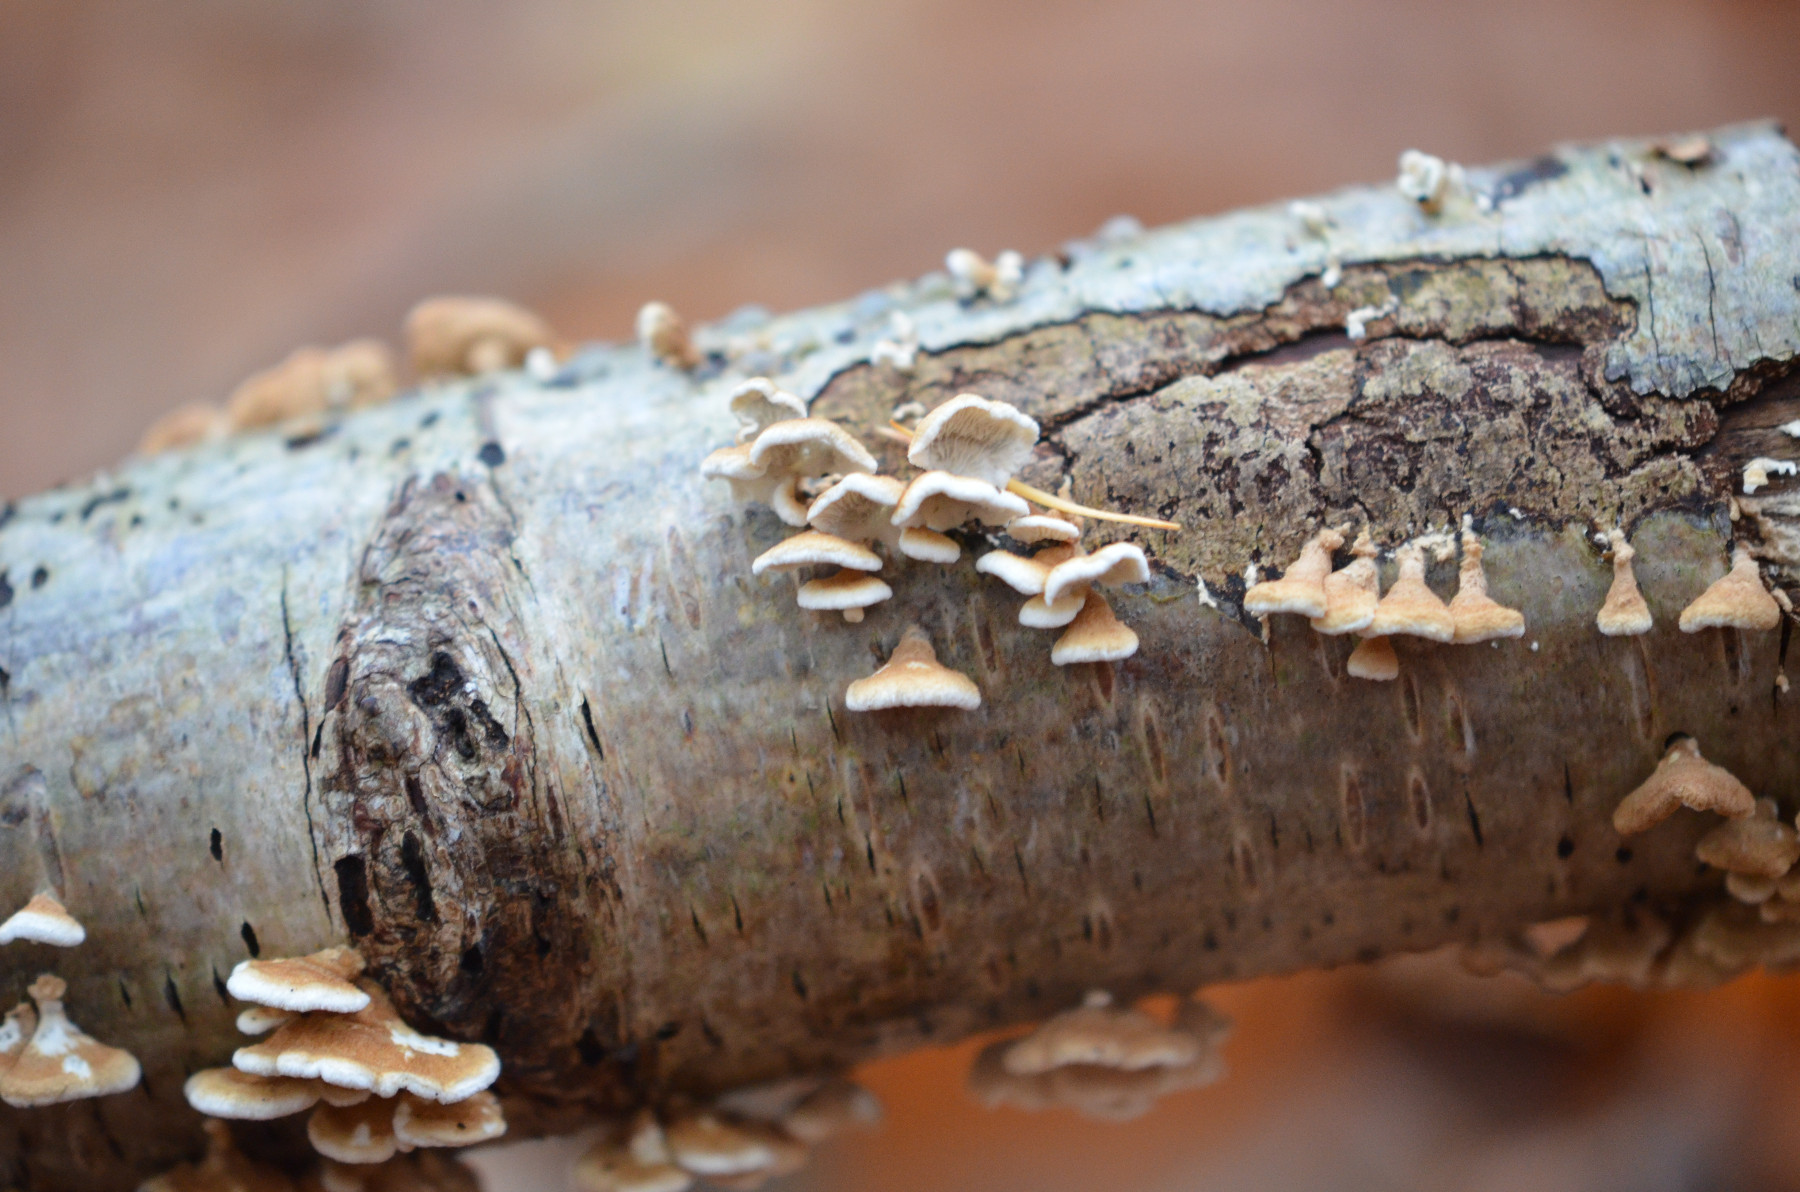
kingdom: Fungi
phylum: Basidiomycota
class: Agaricomycetes
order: Amylocorticiales
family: Amylocorticiaceae
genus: Plicaturopsis
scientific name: Plicaturopsis crispa
